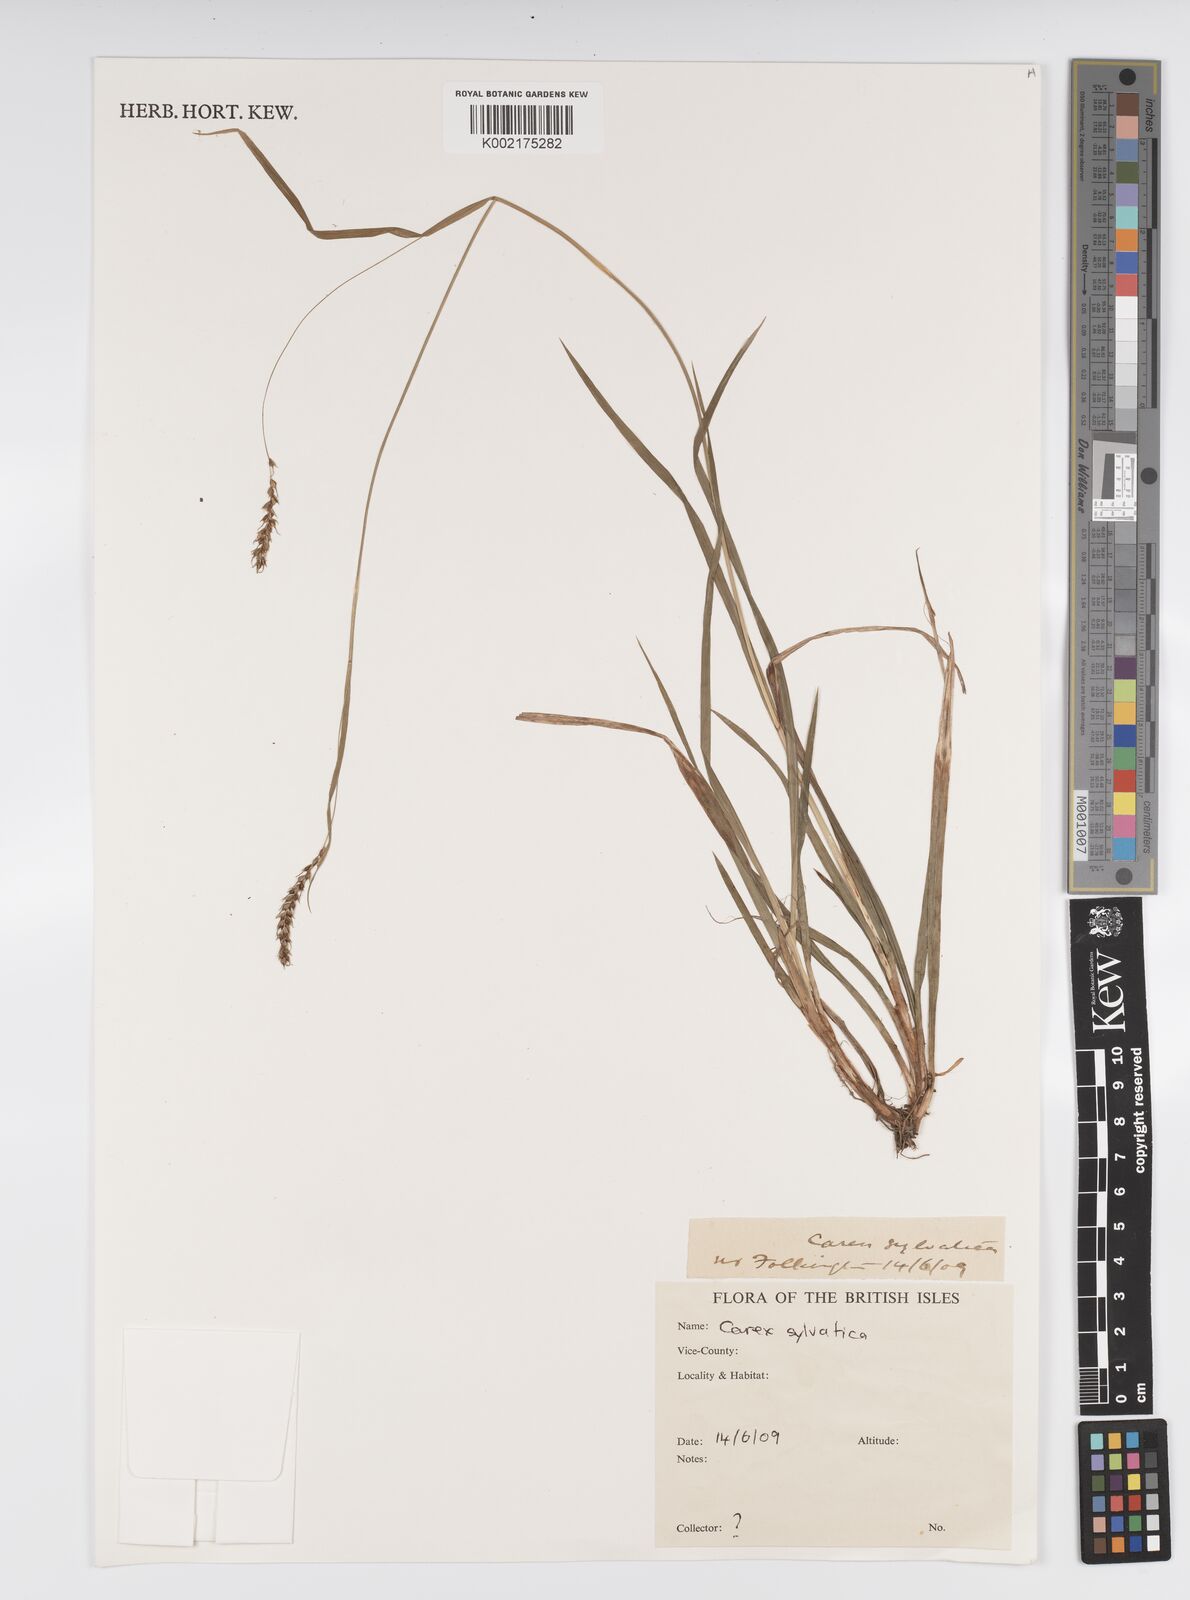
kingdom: Plantae
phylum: Tracheophyta
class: Liliopsida
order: Poales
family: Cyperaceae
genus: Carex
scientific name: Carex sylvatica
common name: Wood-sedge
